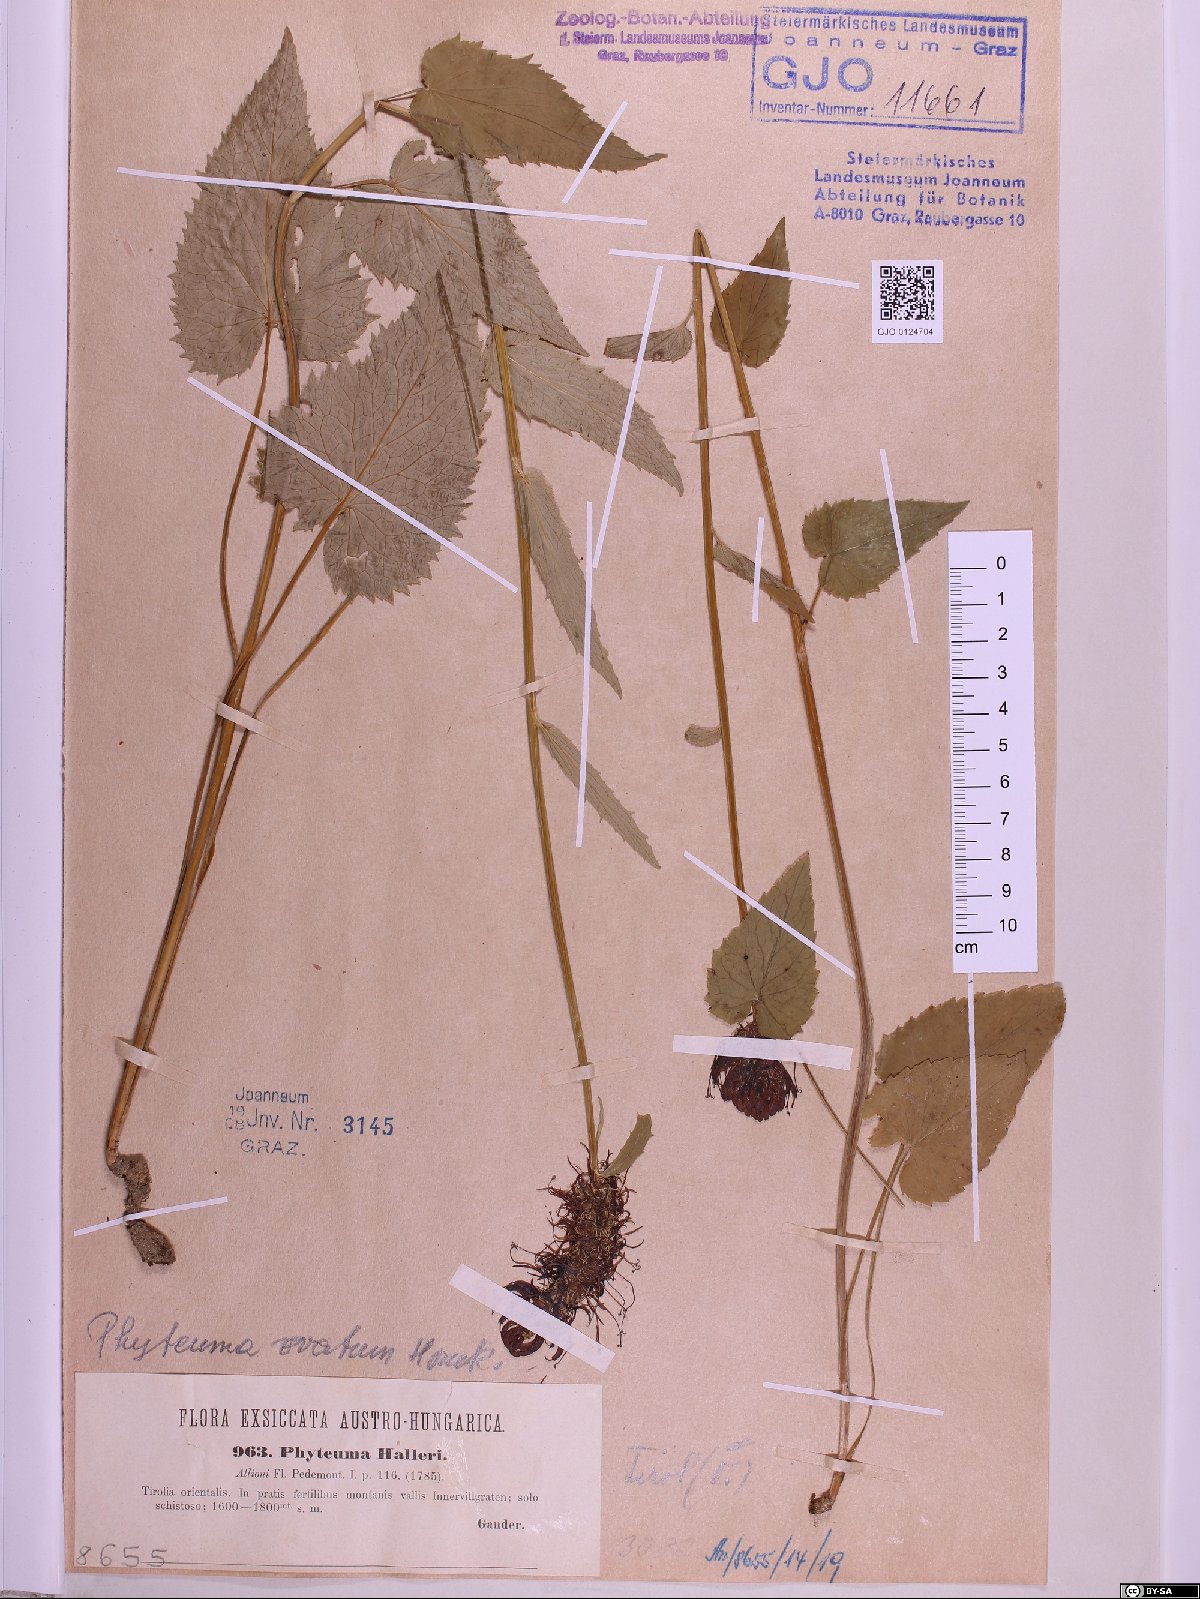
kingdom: Plantae
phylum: Tracheophyta
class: Magnoliopsida
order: Asterales
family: Campanulaceae
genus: Phyteuma
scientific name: Phyteuma ovatum
